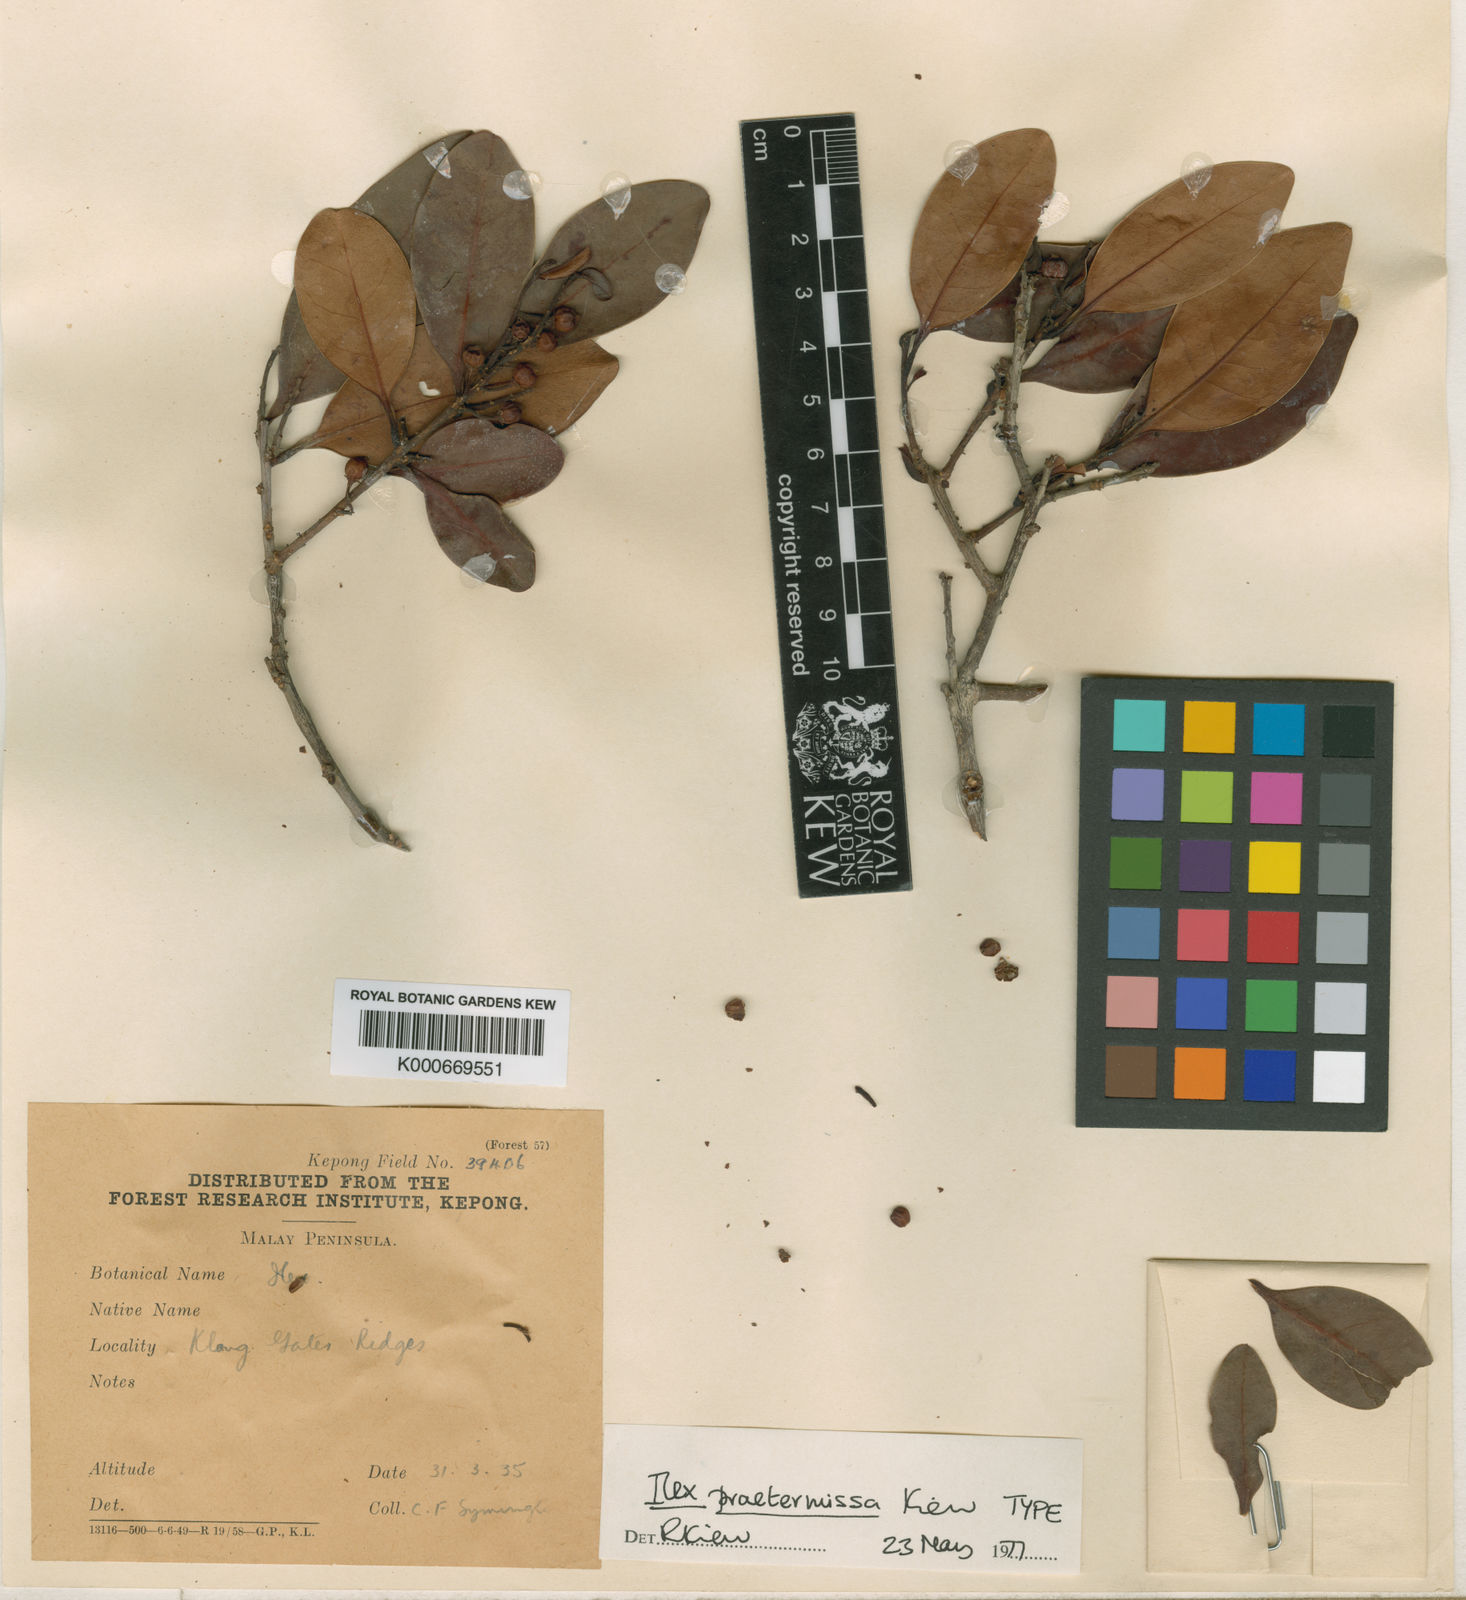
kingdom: Plantae
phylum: Tracheophyta
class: Magnoliopsida
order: Aquifoliales
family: Aquifoliaceae
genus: Ilex
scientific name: Ilex praetermissa
